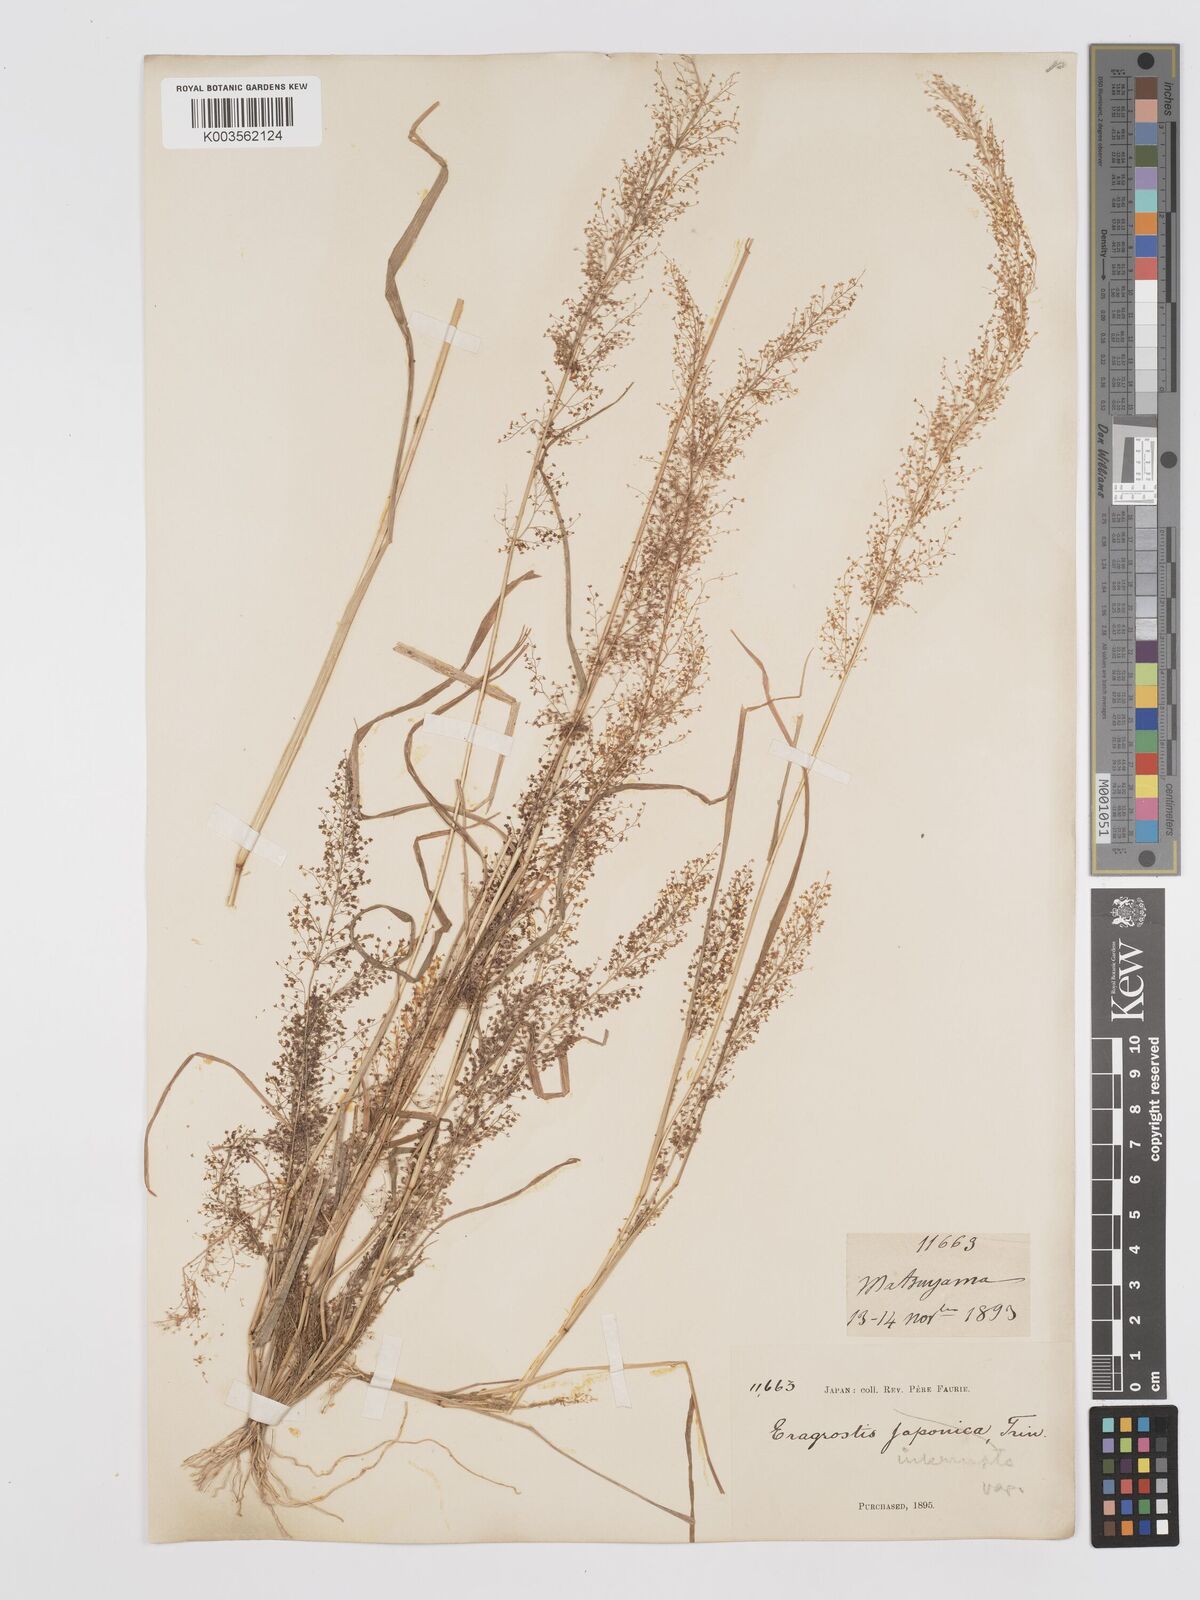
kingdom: Plantae
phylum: Tracheophyta
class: Liliopsida
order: Poales
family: Poaceae
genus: Eragrostis
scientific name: Eragrostis japonica
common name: Pond lovegrass
